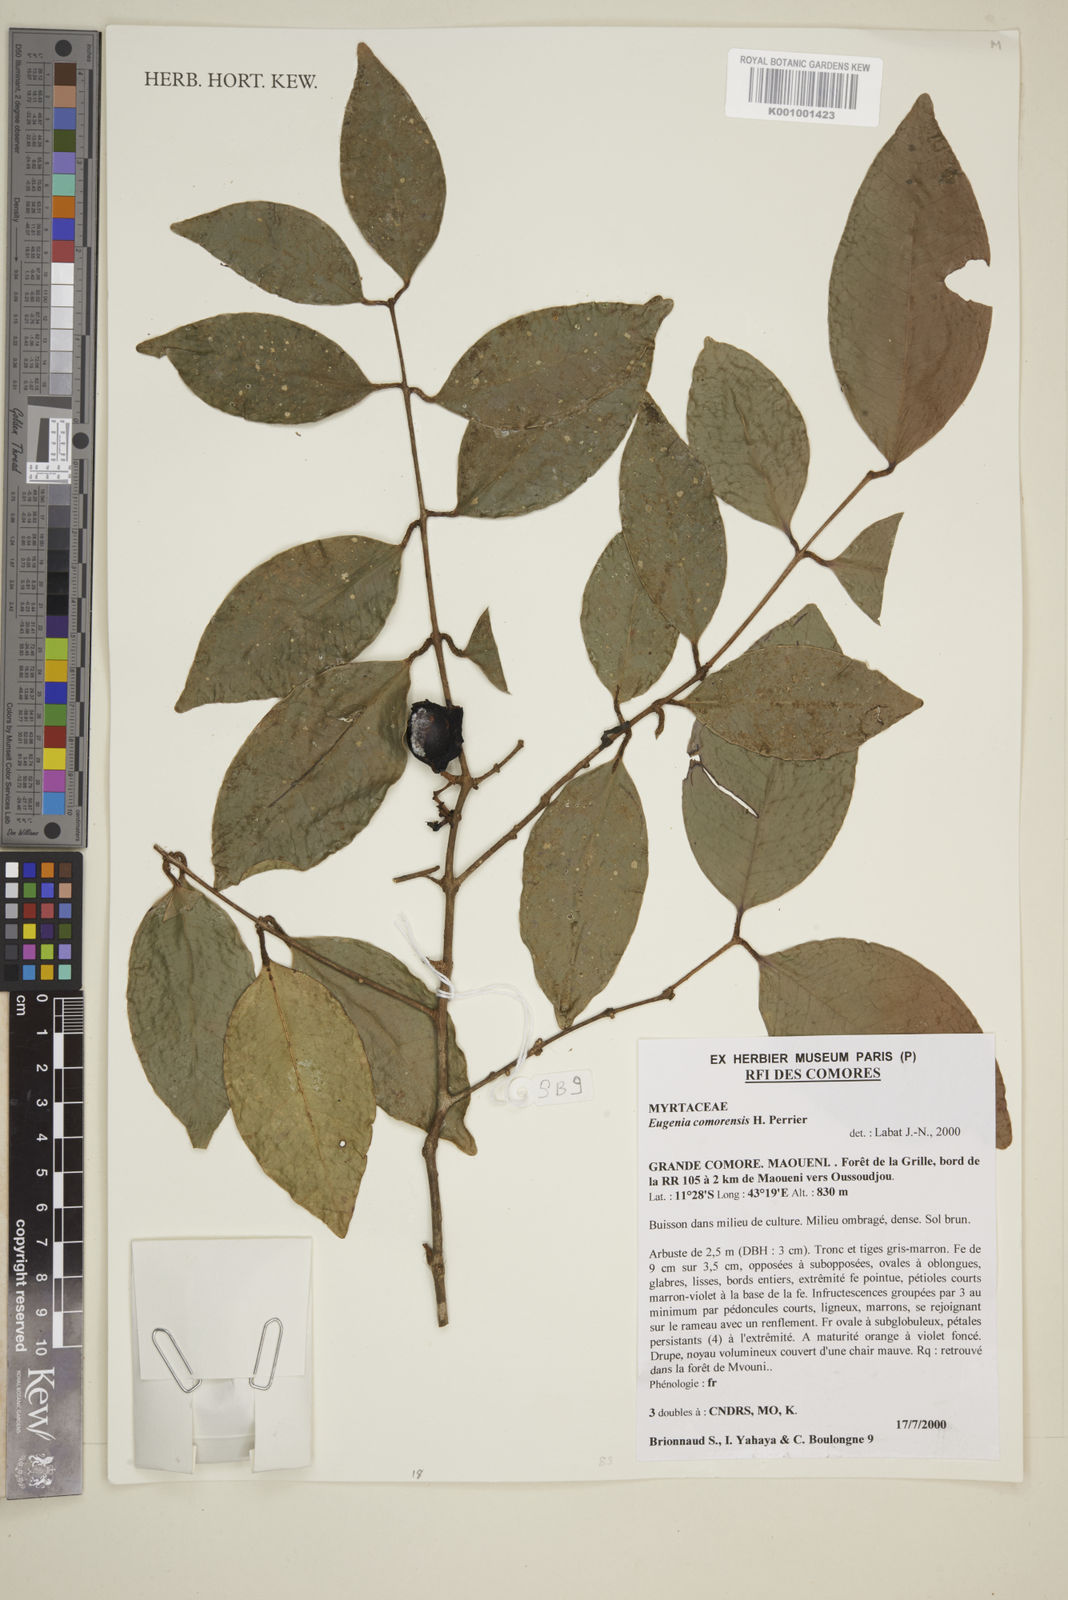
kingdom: Plantae
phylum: Tracheophyta
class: Magnoliopsida
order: Myrtales
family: Myrtaceae
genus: Eugenia
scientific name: Eugenia comorensis
